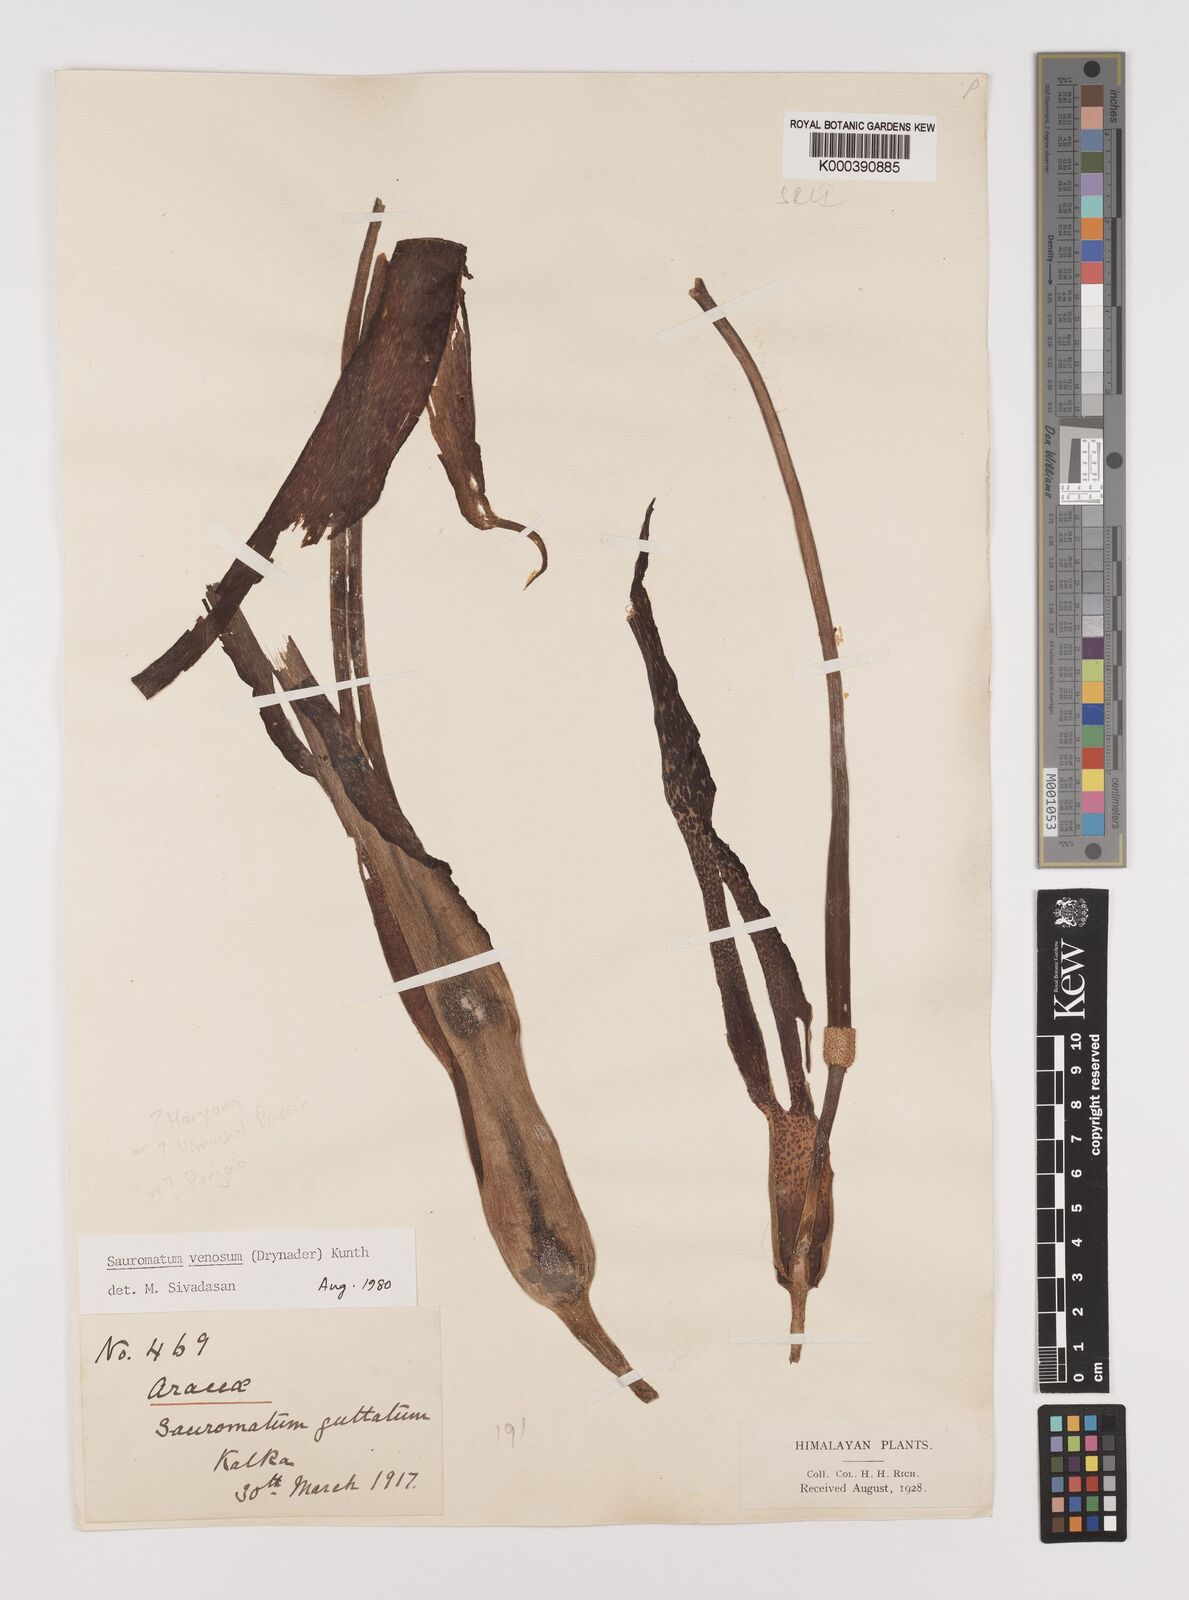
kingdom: Plantae
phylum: Tracheophyta
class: Liliopsida
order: Alismatales
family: Araceae
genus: Sauromatum
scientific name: Sauromatum venosum
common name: Voodoo lily
